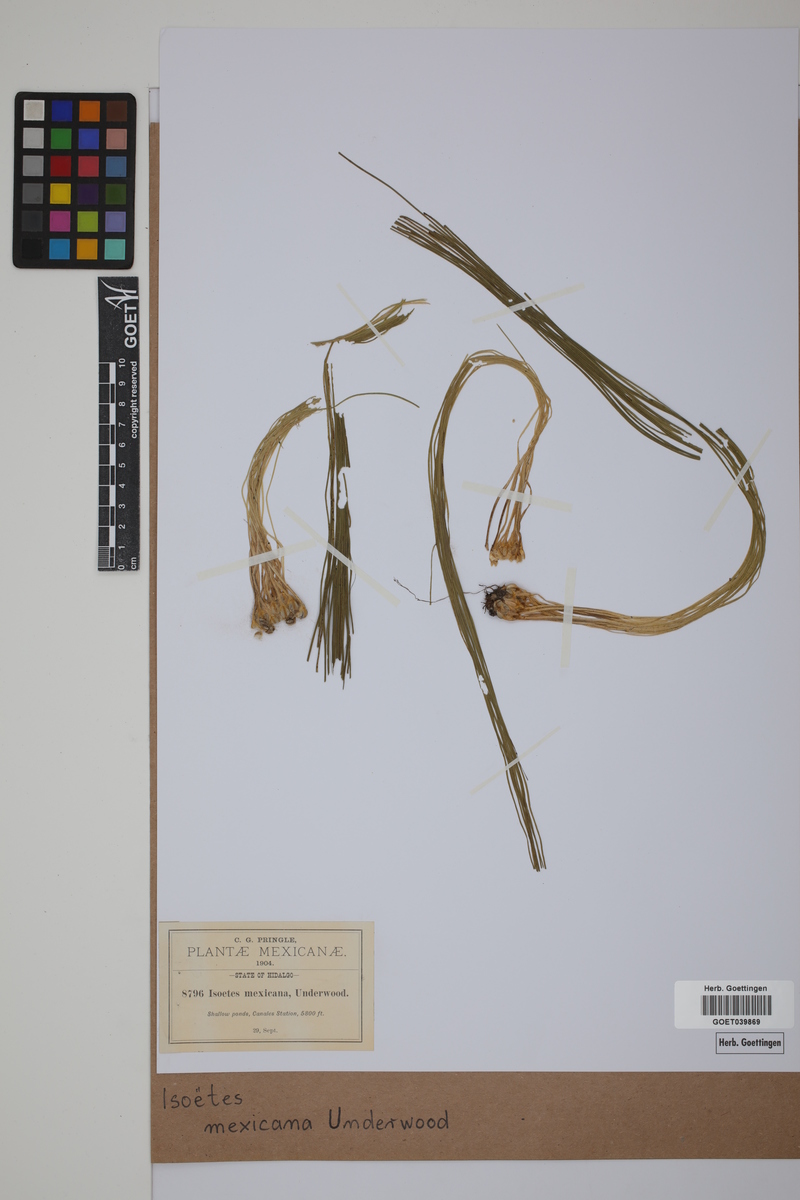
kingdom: Plantae
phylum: Tracheophyta
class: Lycopodiopsida
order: Isoetales
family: Isoetaceae
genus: Isoetes
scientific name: Isoetes mexicana
